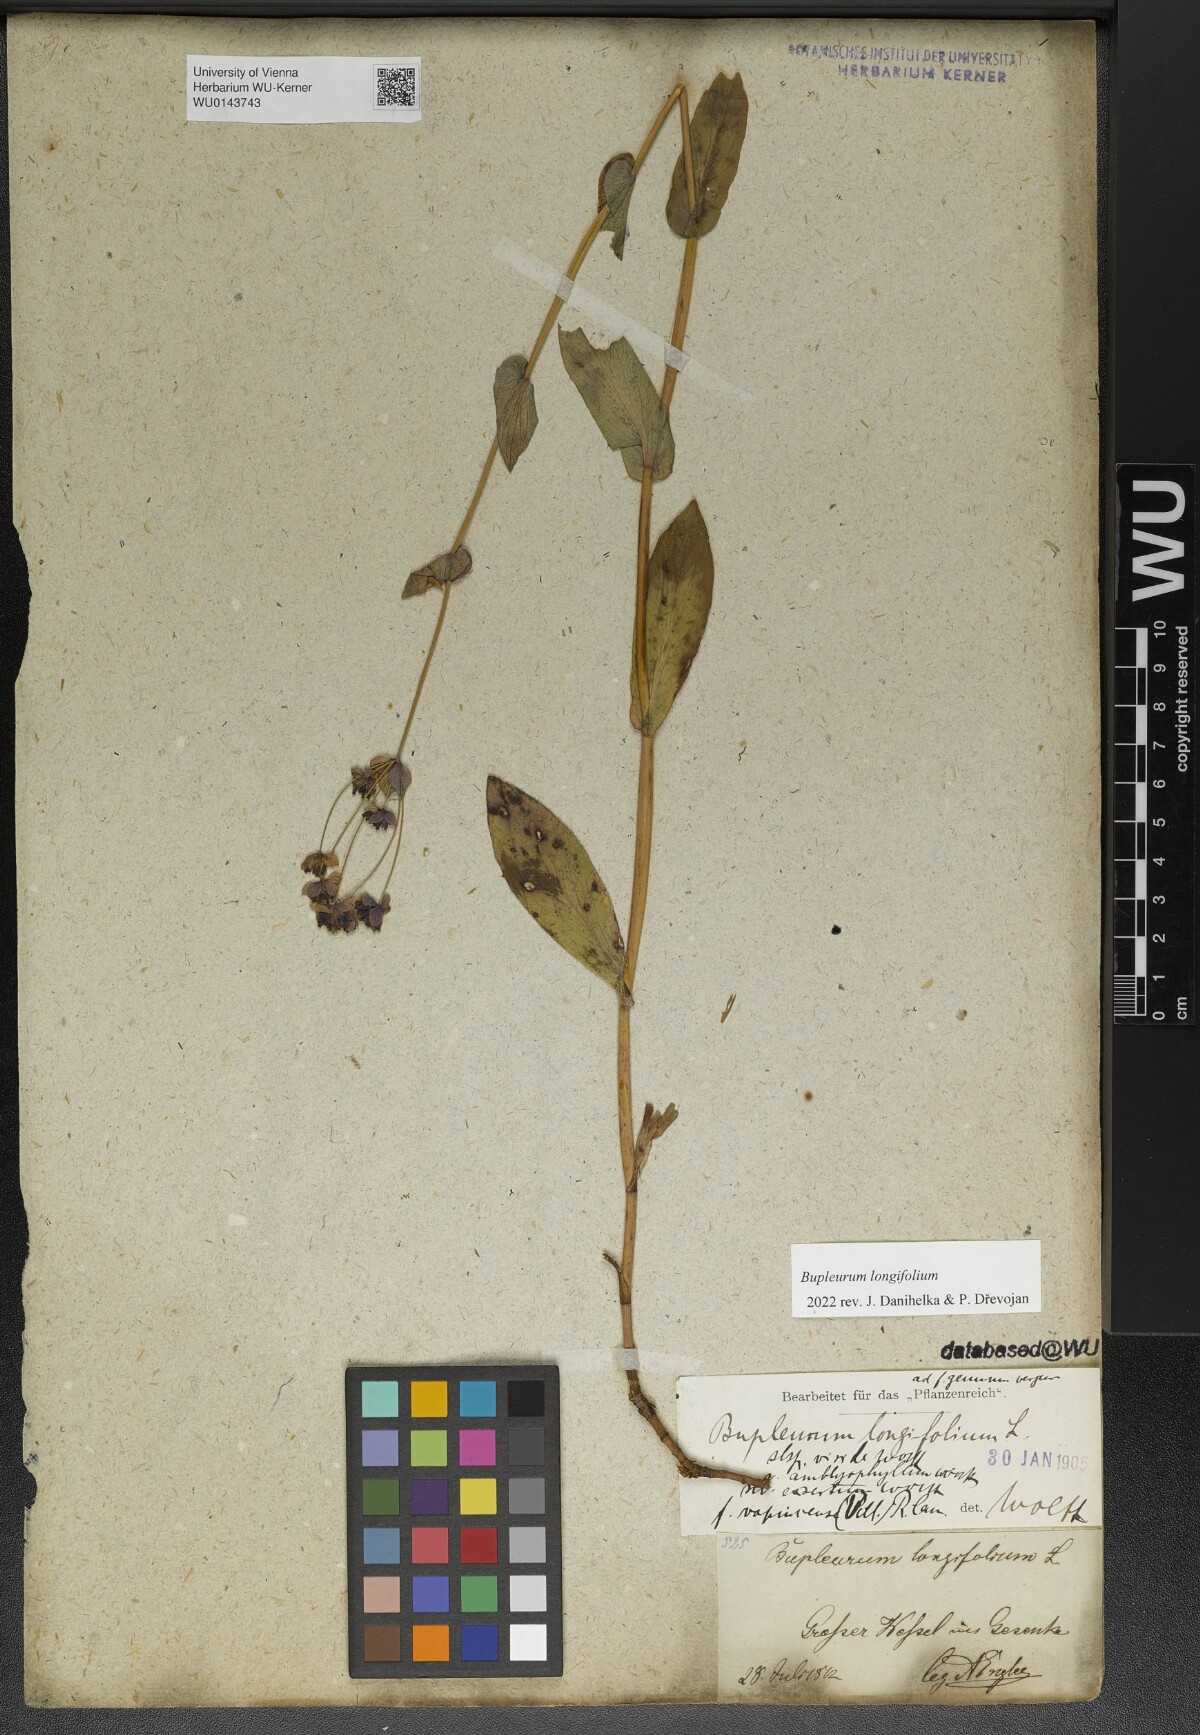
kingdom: Plantae
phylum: Tracheophyta
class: Magnoliopsida
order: Apiales
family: Apiaceae
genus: Bupleurum
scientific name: Bupleurum longifolium
